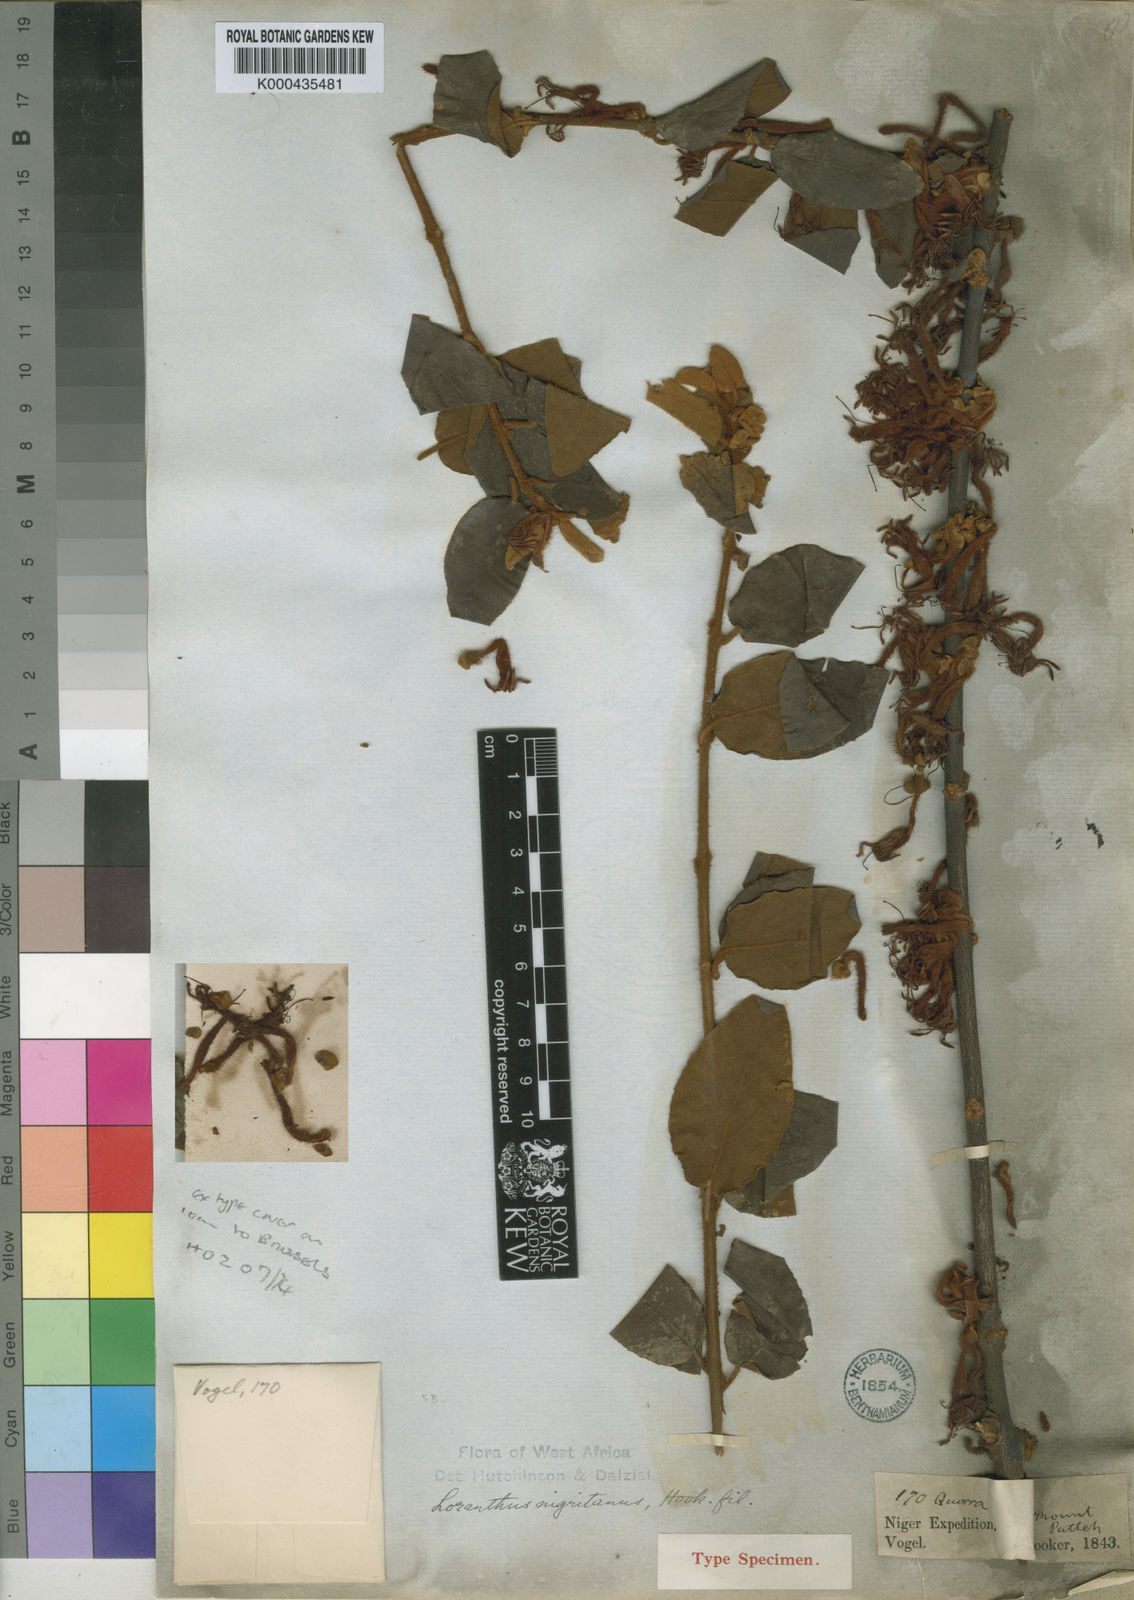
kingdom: Plantae
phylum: Tracheophyta
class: Magnoliopsida
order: Santalales
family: Loranthaceae
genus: Phragmanthera
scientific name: Phragmanthera nigritana
